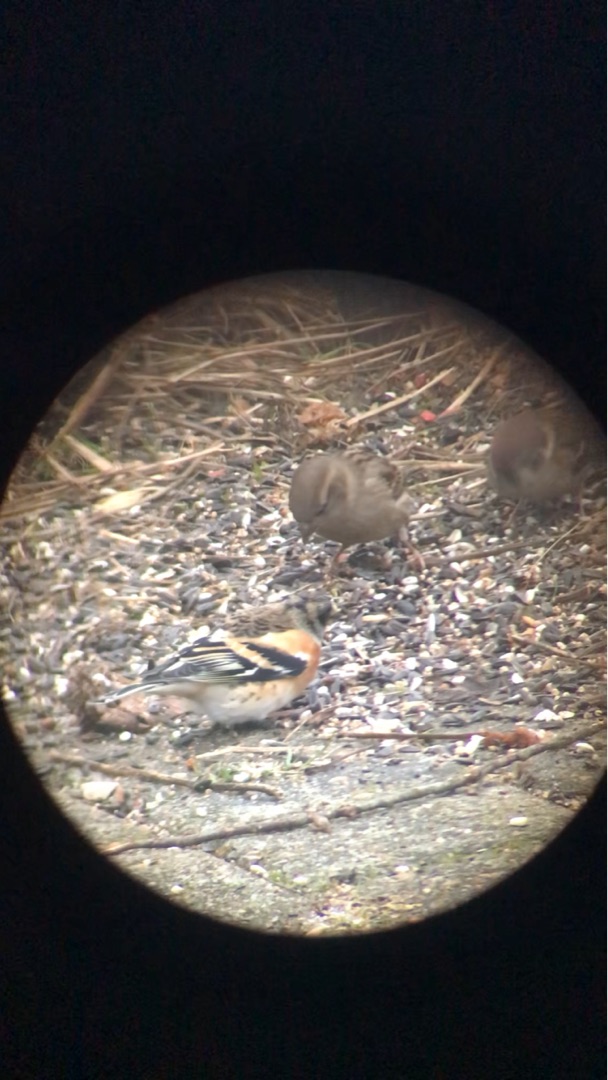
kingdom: Animalia
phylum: Chordata
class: Aves
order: Passeriformes
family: Fringillidae
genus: Fringilla
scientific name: Fringilla montifringilla
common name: Kvækerfinke
